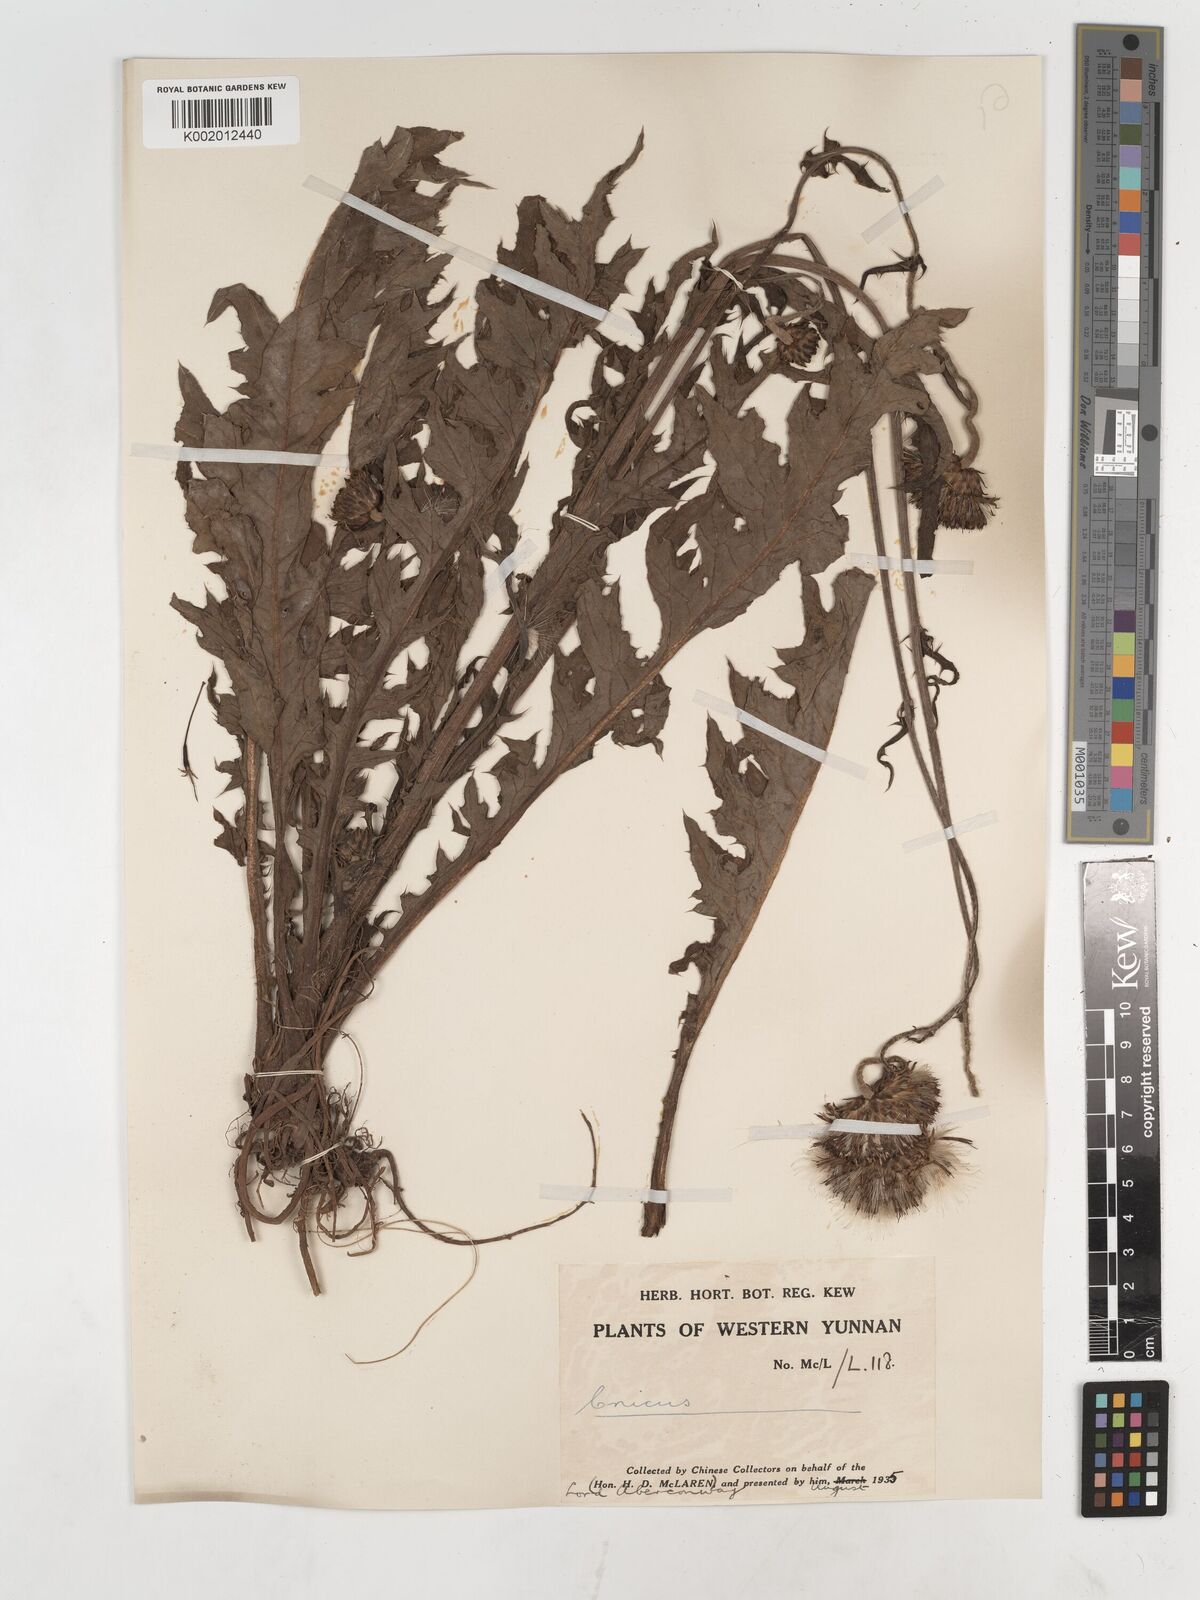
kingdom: Plantae
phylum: Tracheophyta
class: Magnoliopsida
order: Asterales
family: Asteraceae
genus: Cirsium
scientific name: Cirsium
